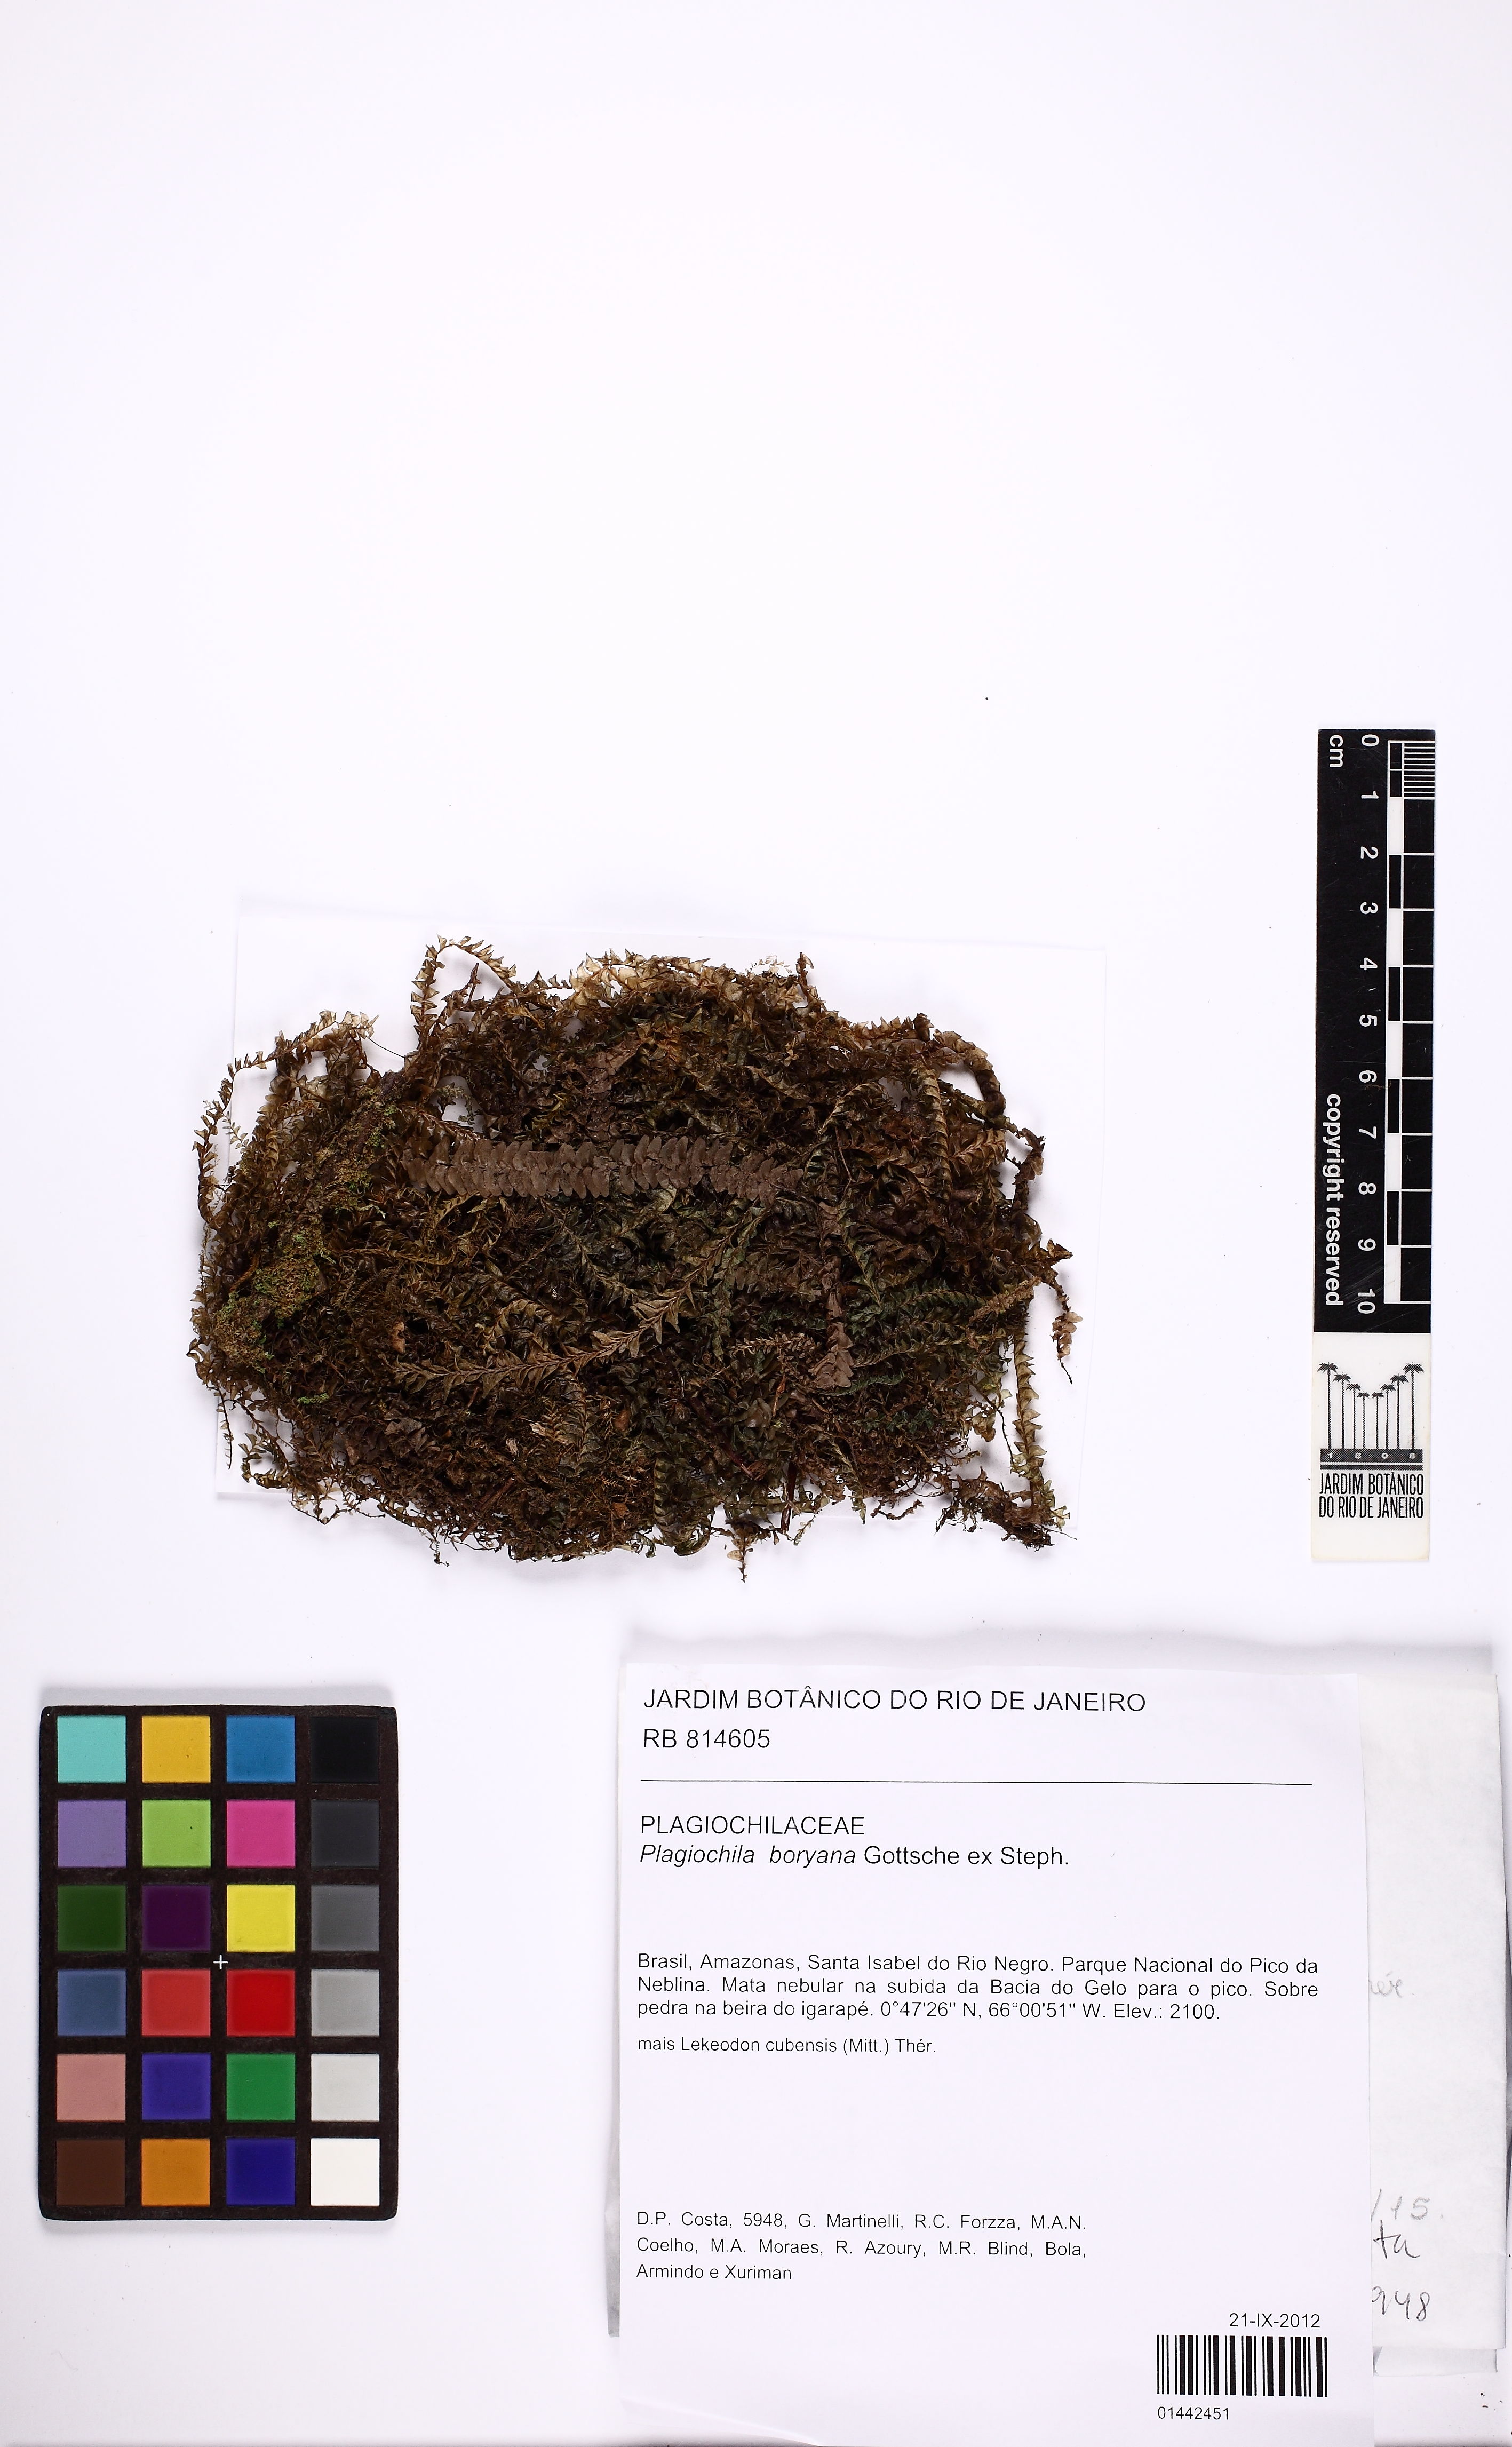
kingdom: Plantae
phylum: Marchantiophyta
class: Jungermanniopsida
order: Jungermanniales
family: Plagiochilaceae
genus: Plagiochila
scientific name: Plagiochila boryana
